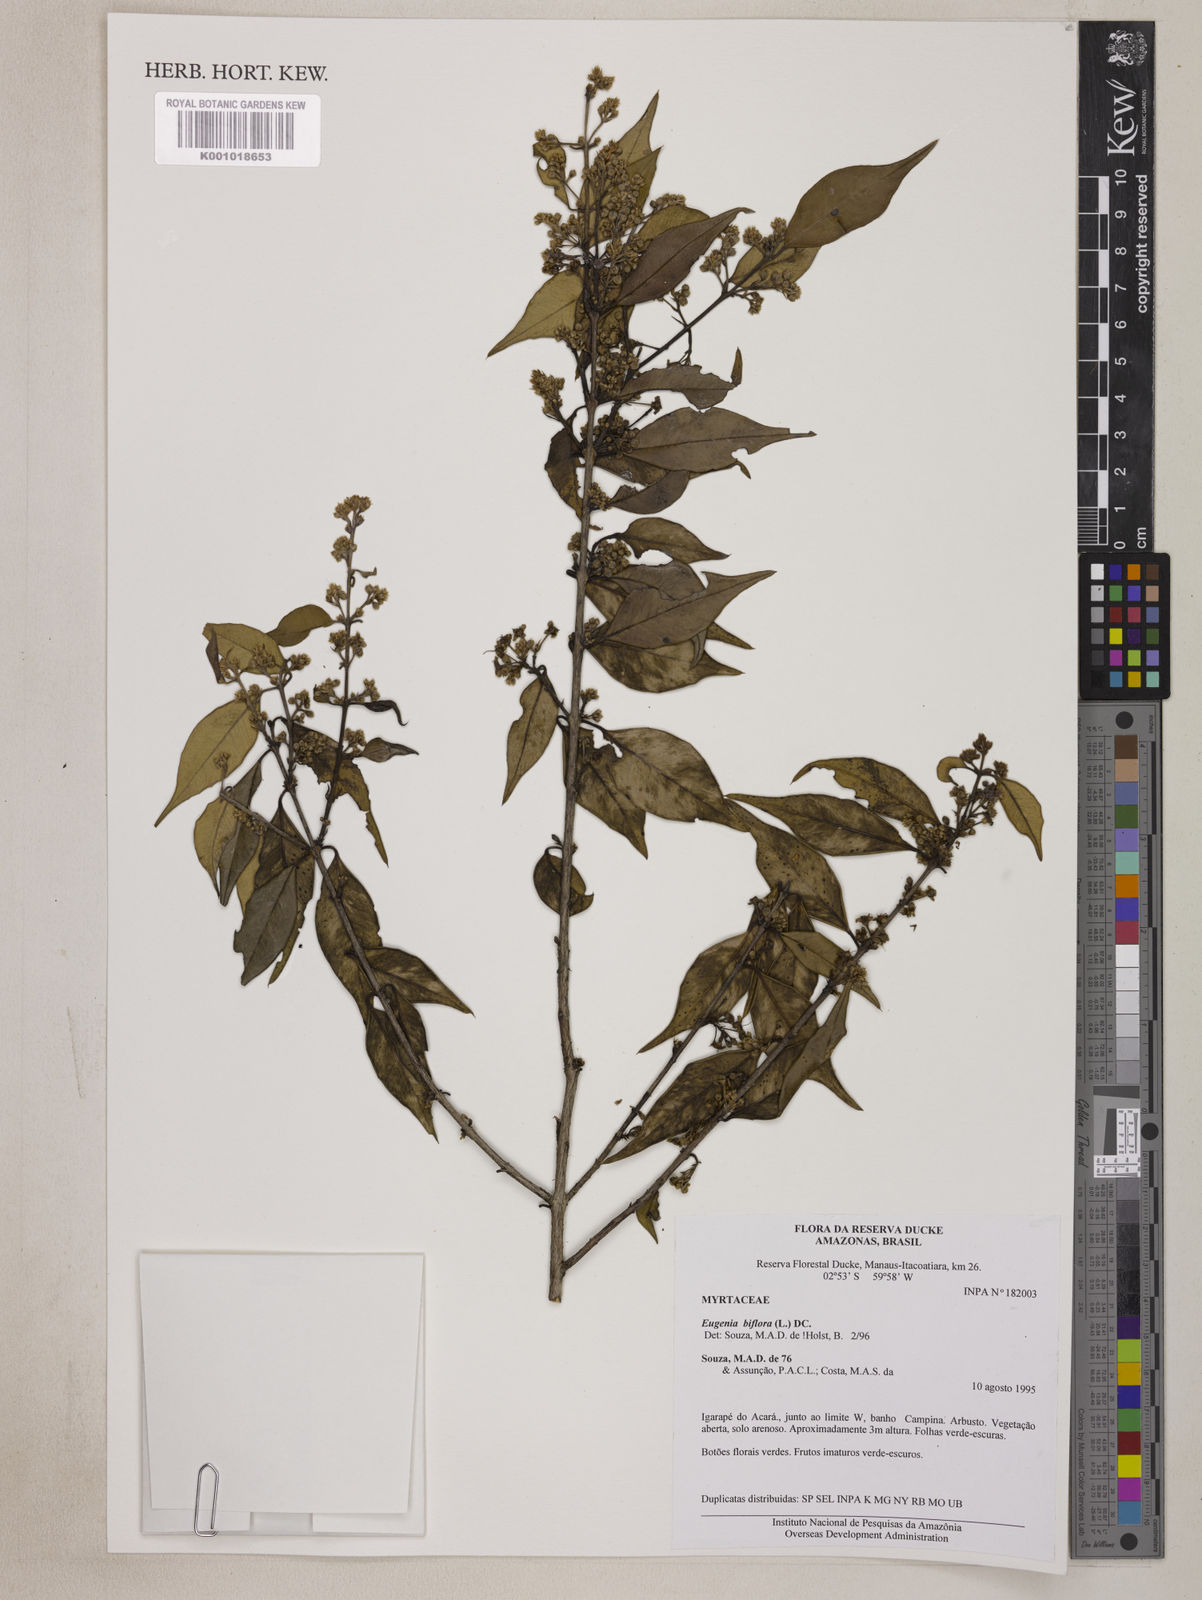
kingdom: Plantae
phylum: Tracheophyta
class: Magnoliopsida
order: Myrtales
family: Myrtaceae
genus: Eugenia
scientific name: Eugenia biflora
